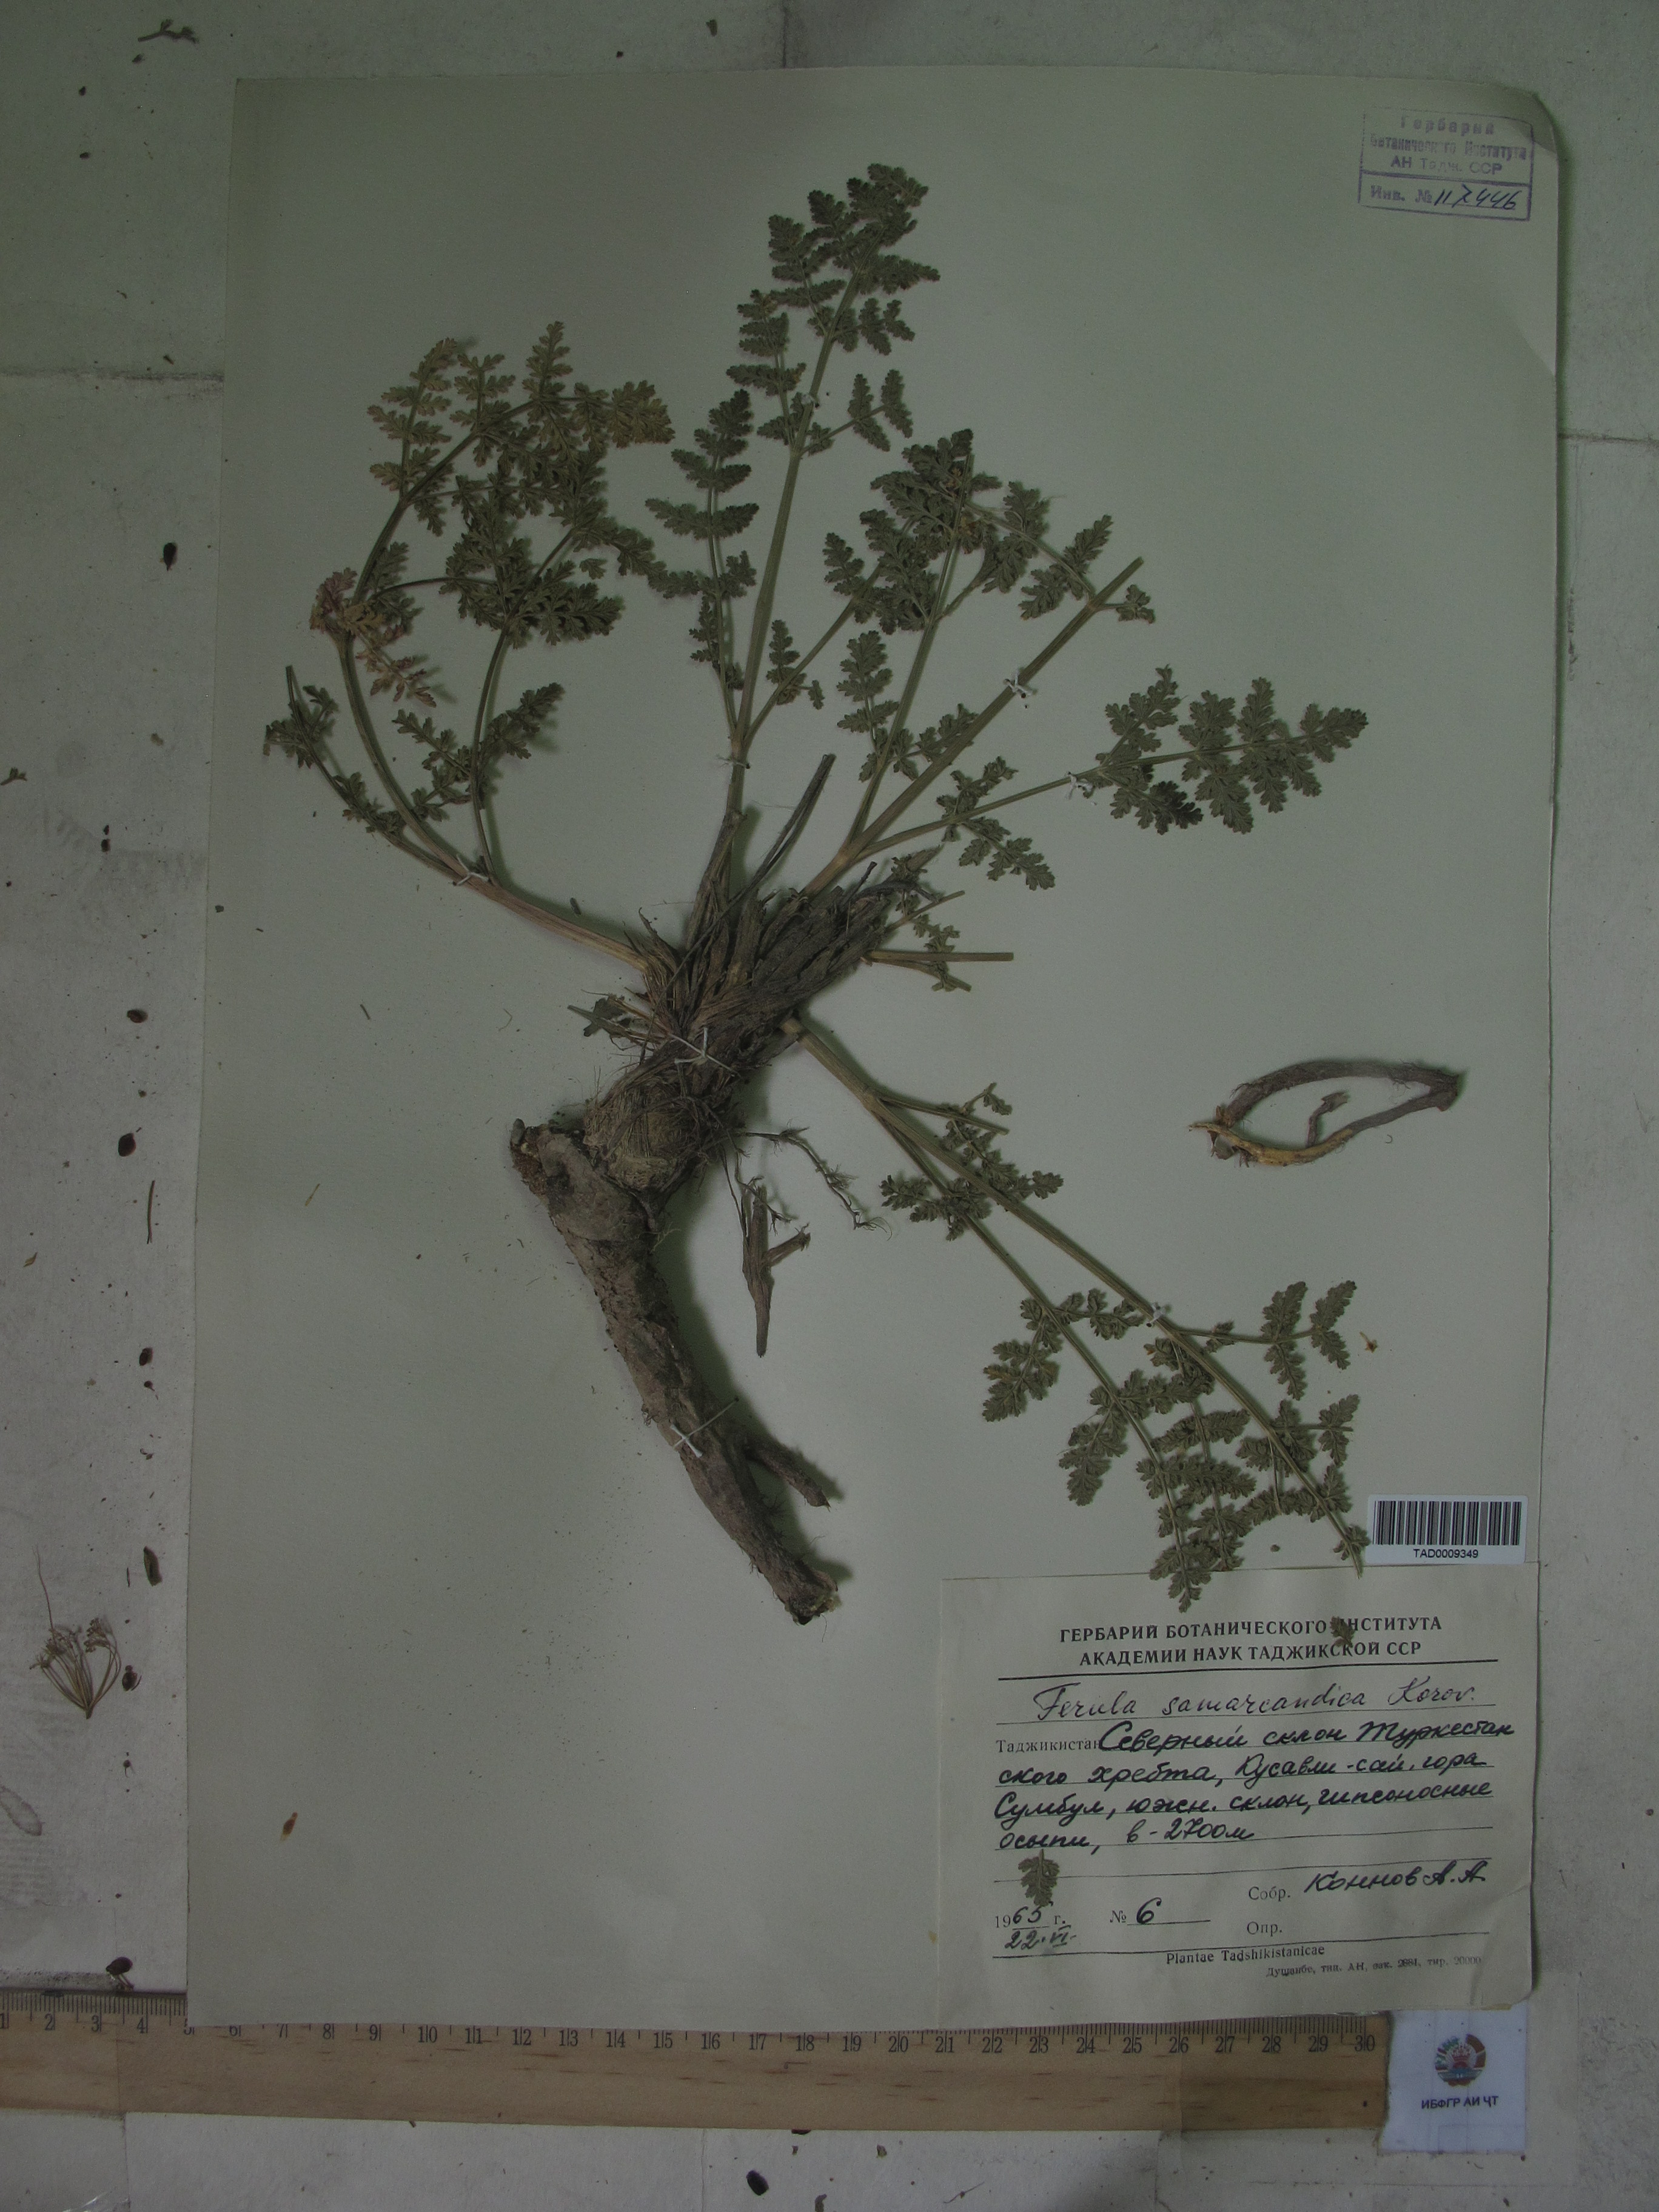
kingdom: Plantae
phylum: Tracheophyta
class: Magnoliopsida
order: Apiales
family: Apiaceae
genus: Ferula
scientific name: Ferula samarkandica
